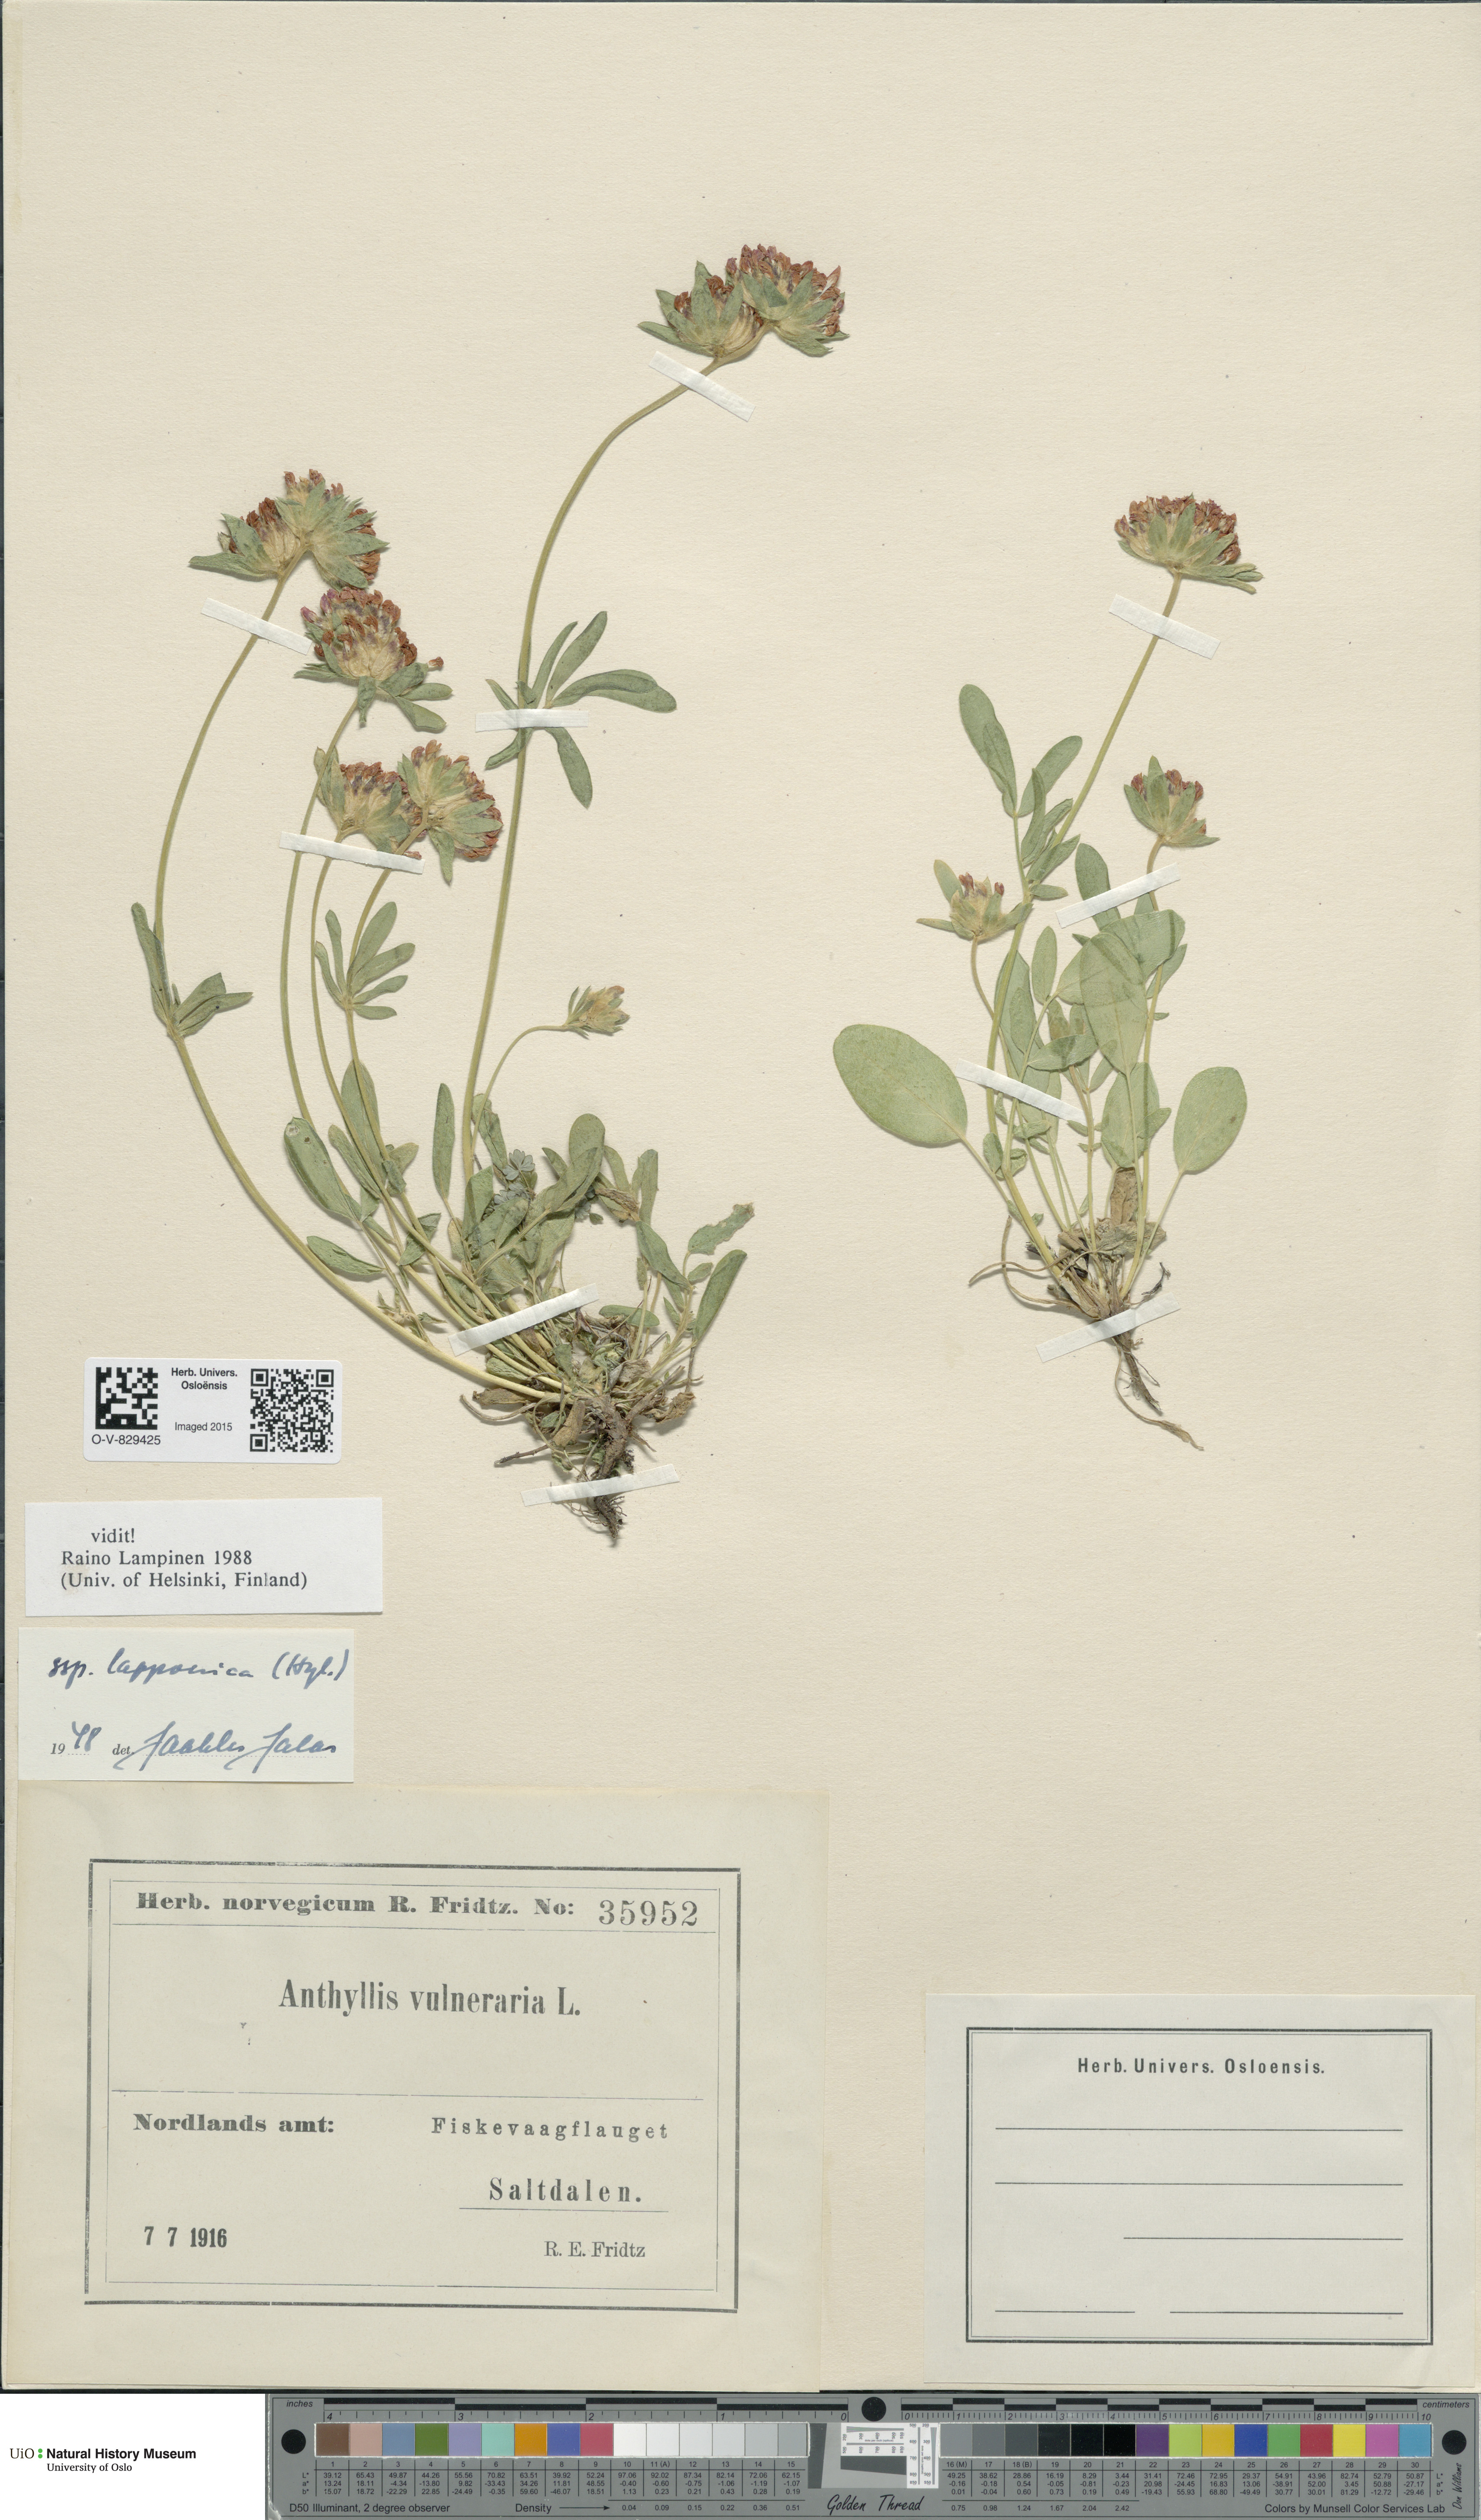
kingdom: Plantae
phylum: Tracheophyta
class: Magnoliopsida
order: Fabales
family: Fabaceae
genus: Anthyllis
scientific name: Anthyllis vulneraria
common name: Kidney vetch
